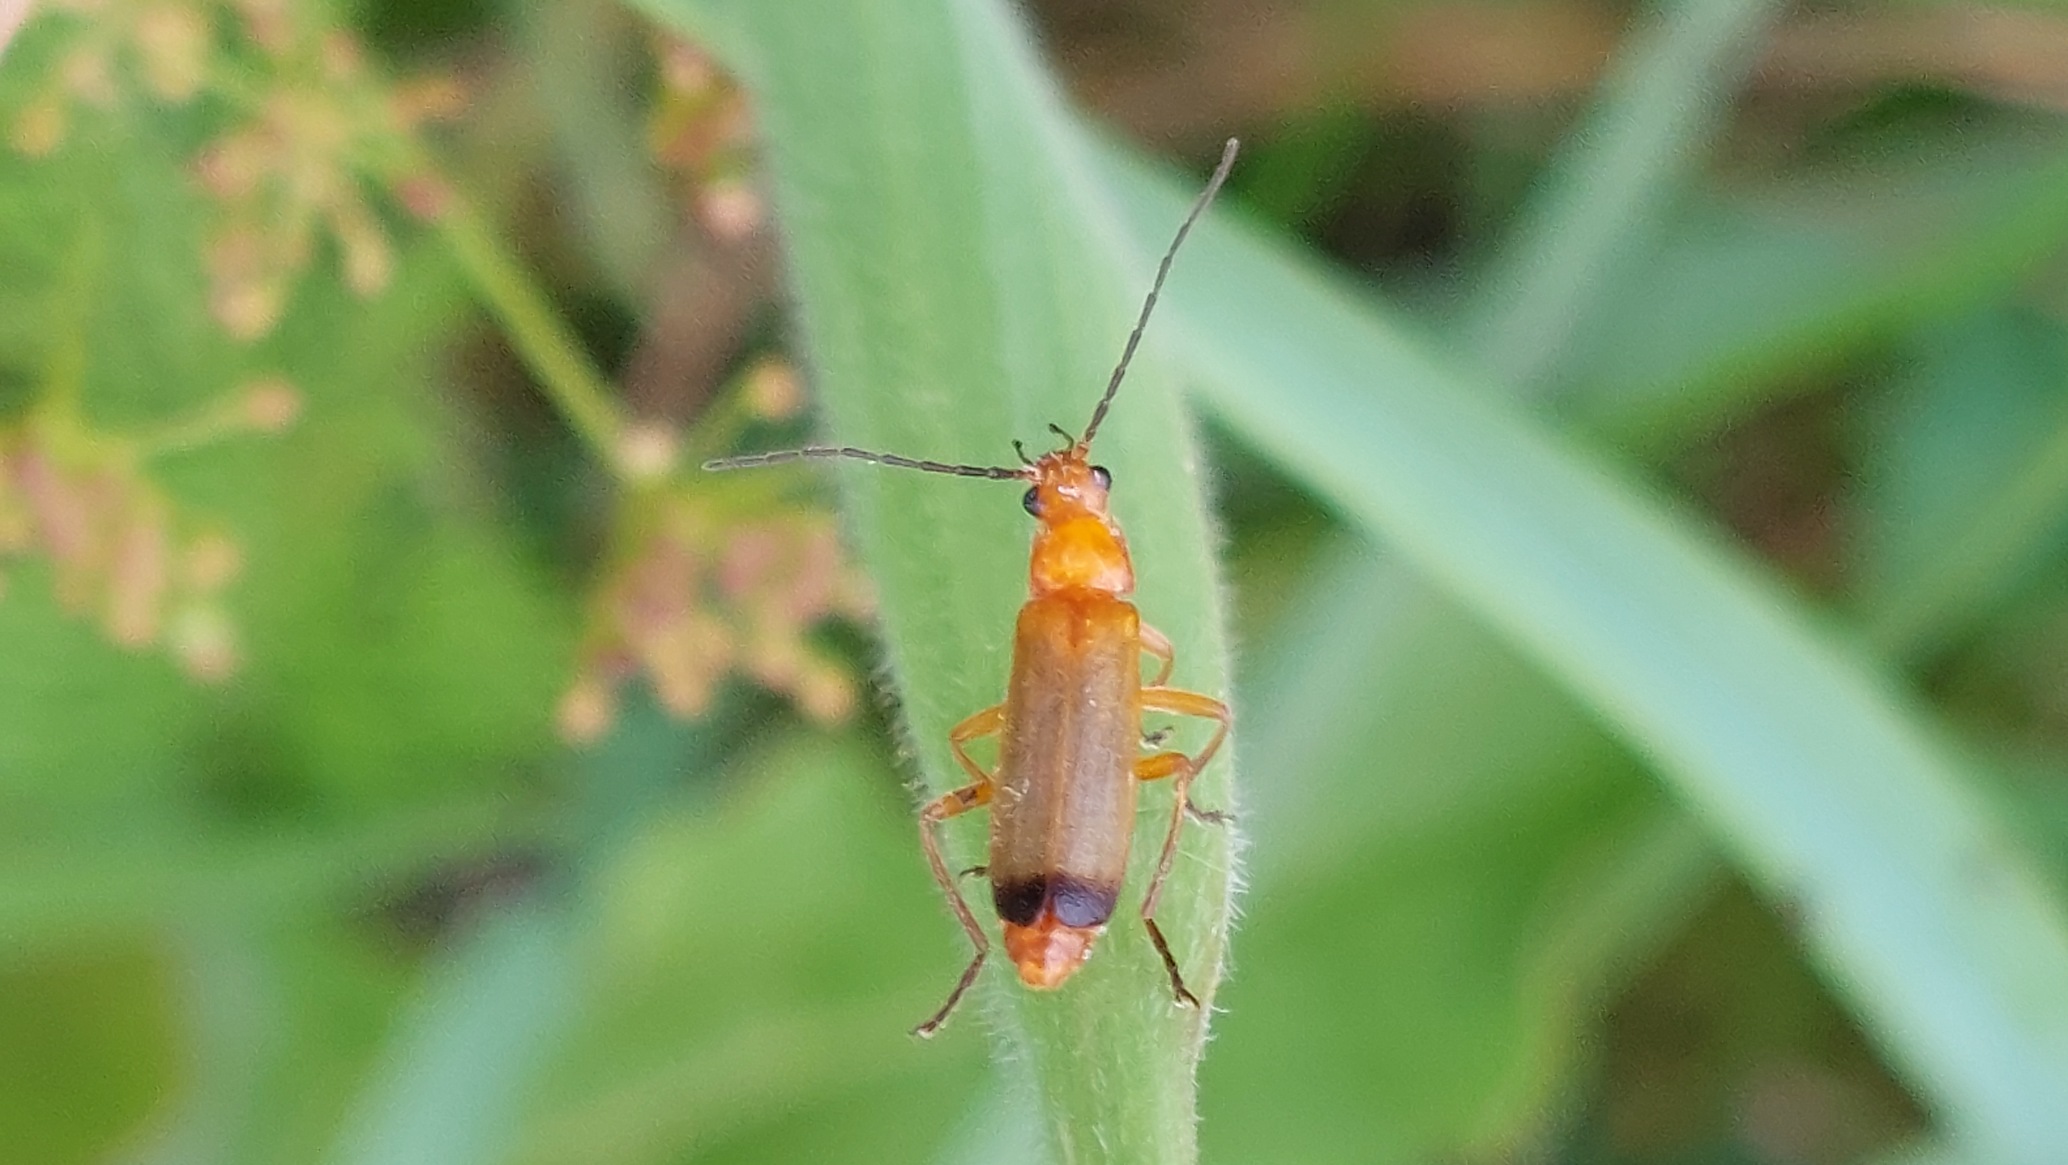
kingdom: Animalia
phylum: Arthropoda
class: Insecta
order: Coleoptera
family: Cantharidae
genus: Rhagonycha
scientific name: Rhagonycha fulva
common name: Præstebille
